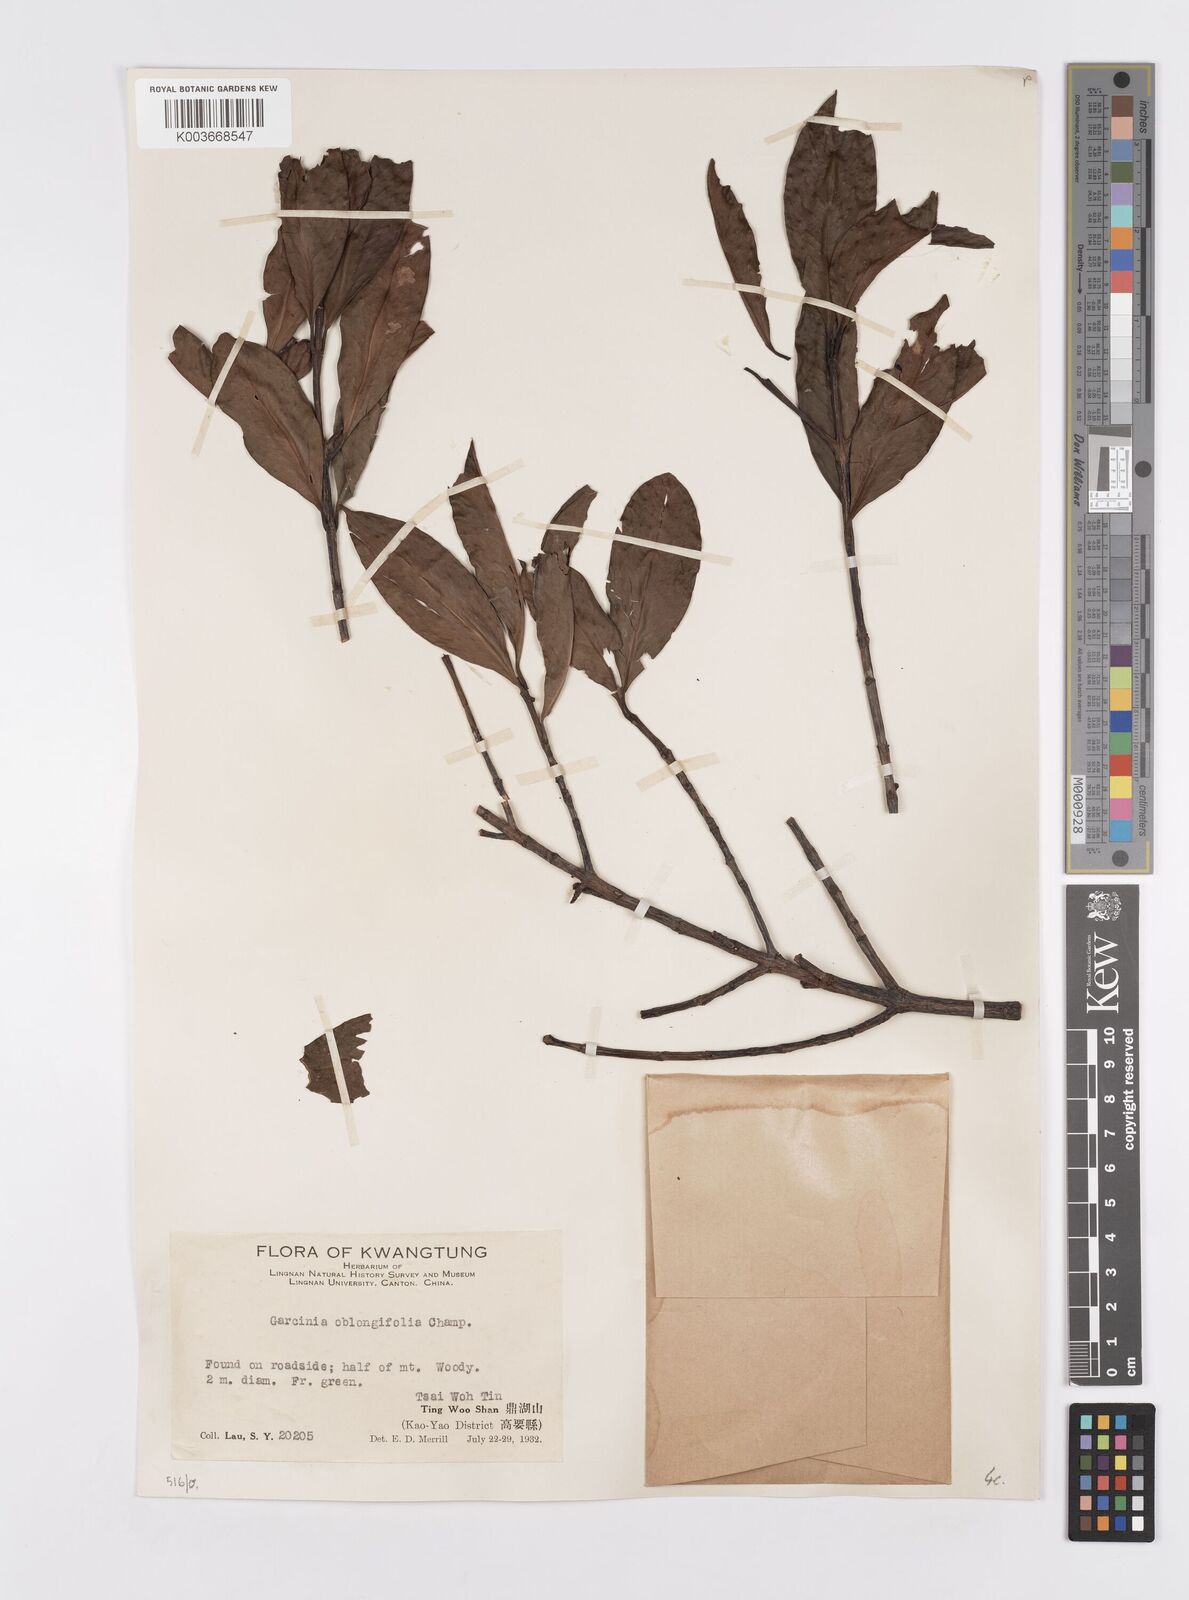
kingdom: Plantae
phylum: Tracheophyta
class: Magnoliopsida
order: Malpighiales
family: Clusiaceae
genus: Garcinia
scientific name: Garcinia oblongifolia
